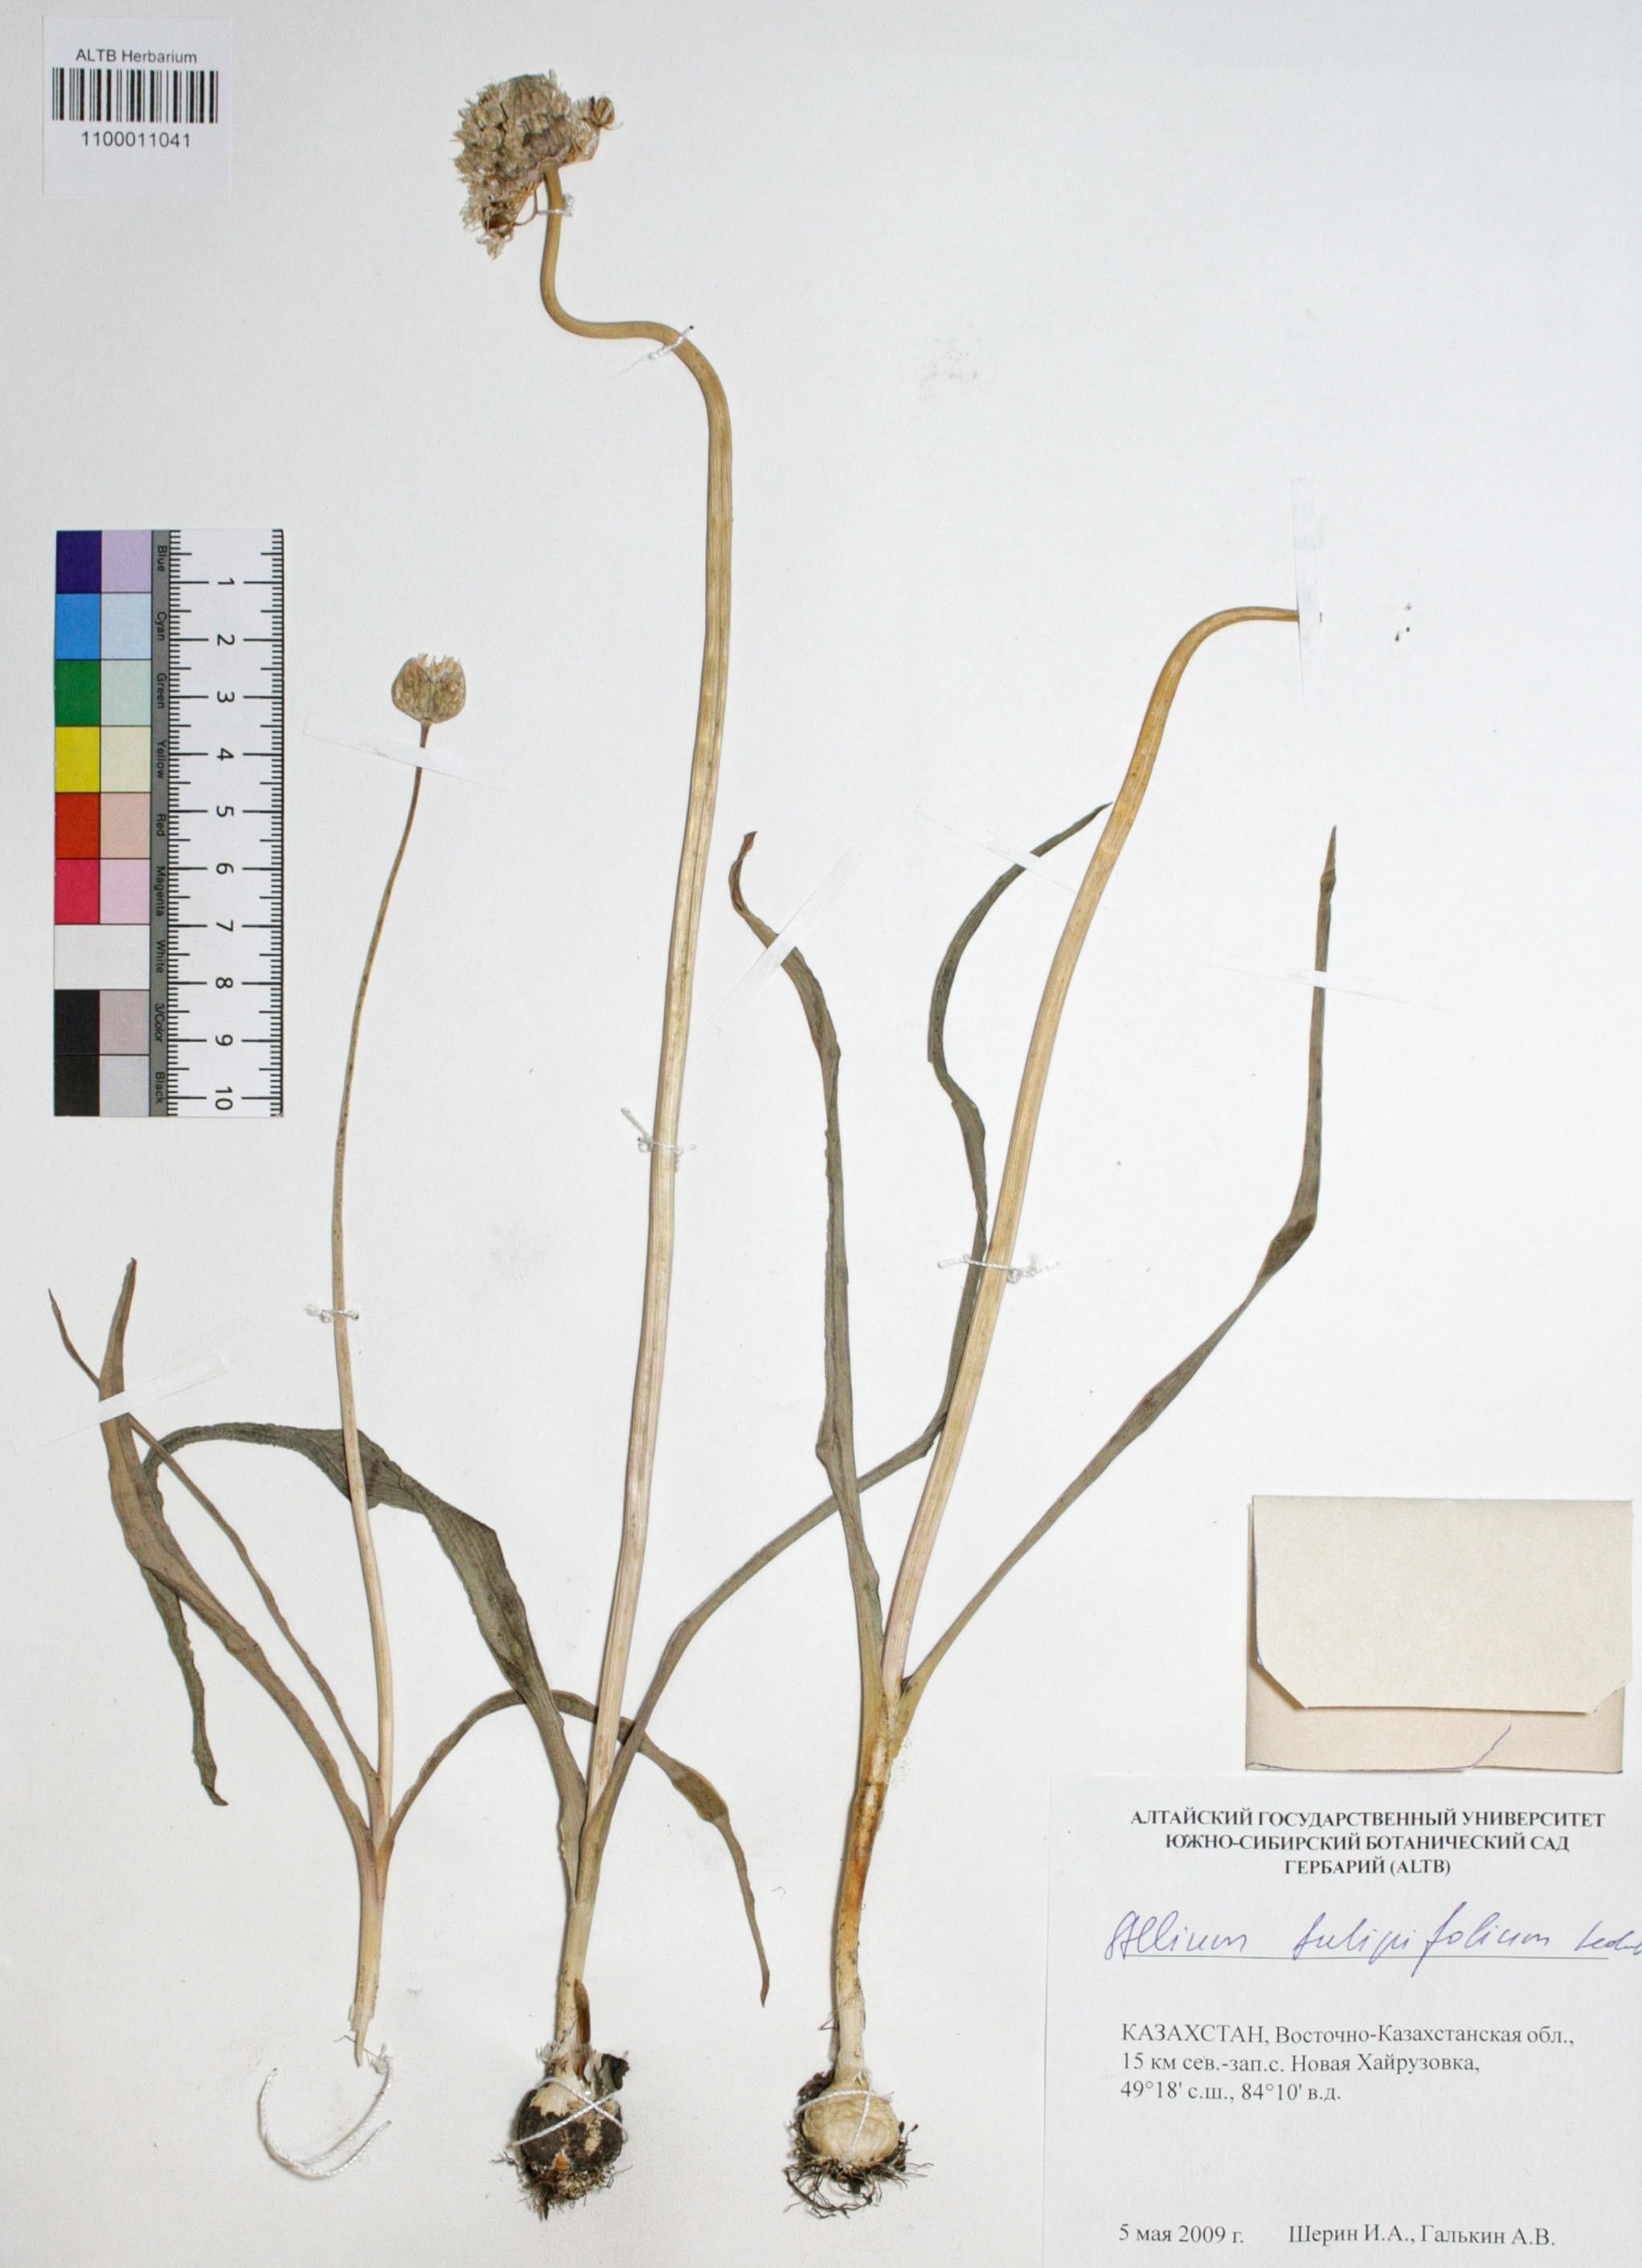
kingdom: Plantae
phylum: Tracheophyta
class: Liliopsida
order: Asparagales
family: Amaryllidaceae
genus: Allium
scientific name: Allium tulipifolium
